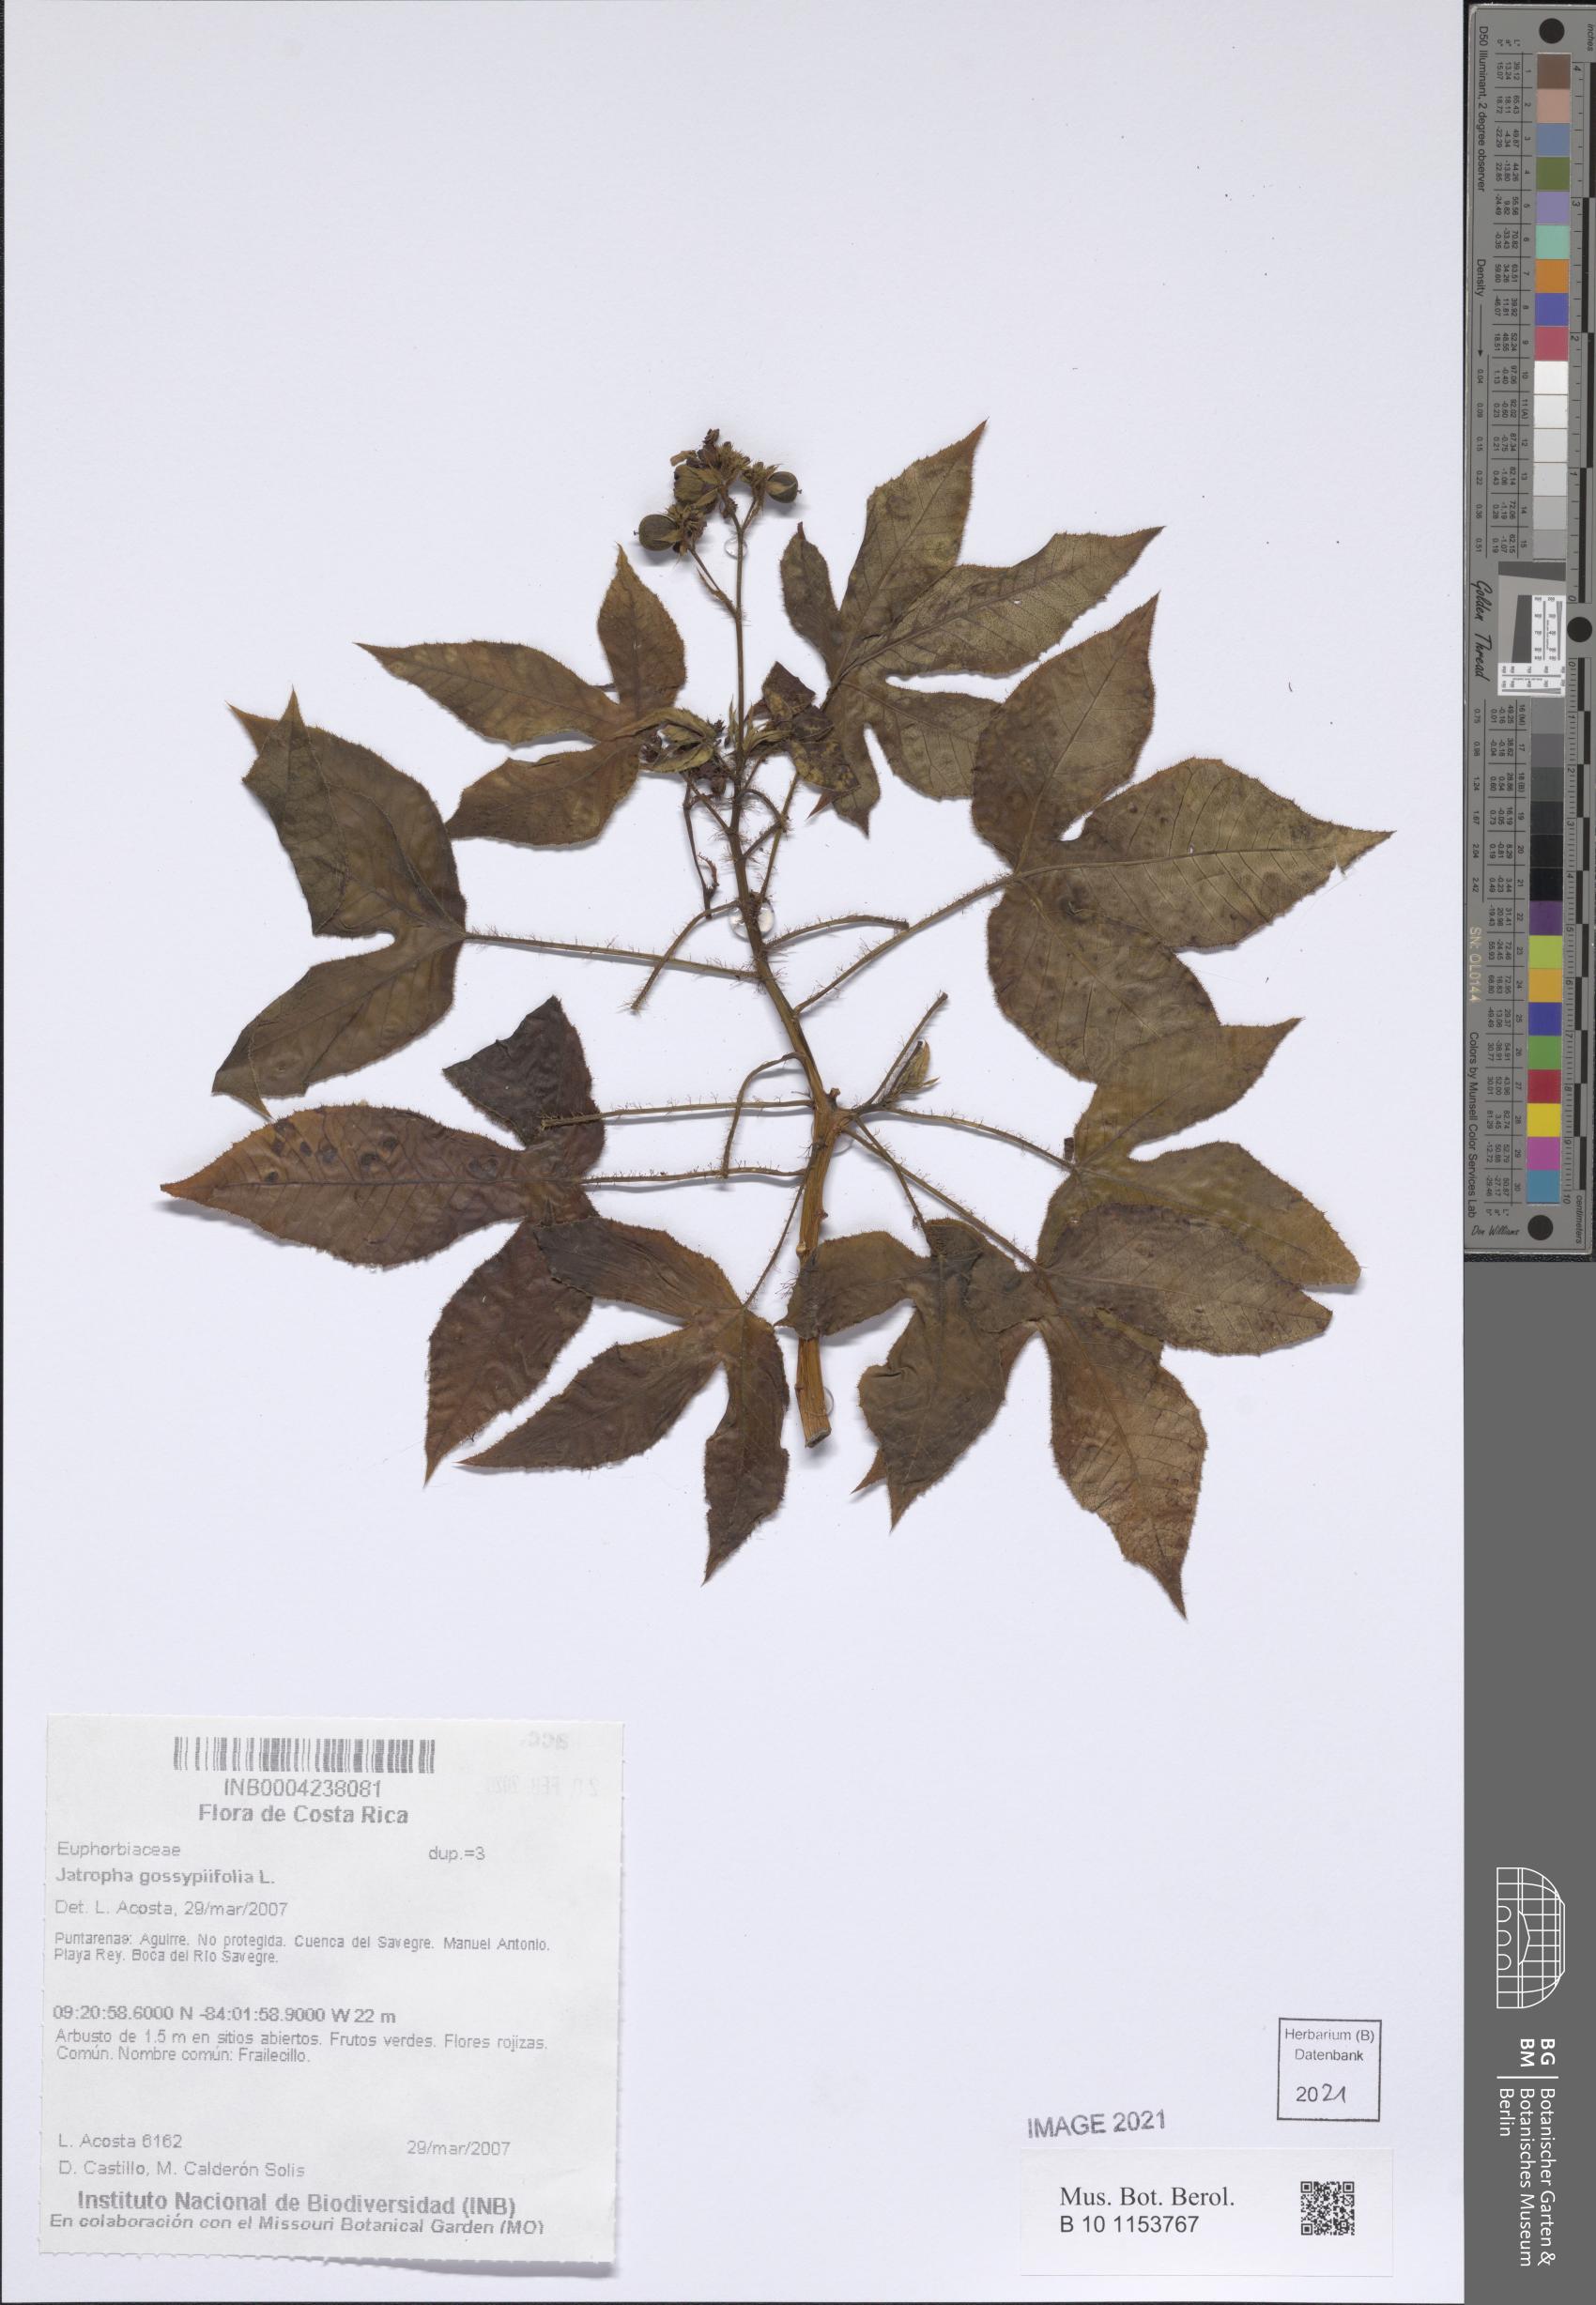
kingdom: Plantae
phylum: Tracheophyta
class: Magnoliopsida
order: Malpighiales
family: Euphorbiaceae
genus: Jatropha
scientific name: Jatropha gossypiifolia
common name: Bellyache bush
